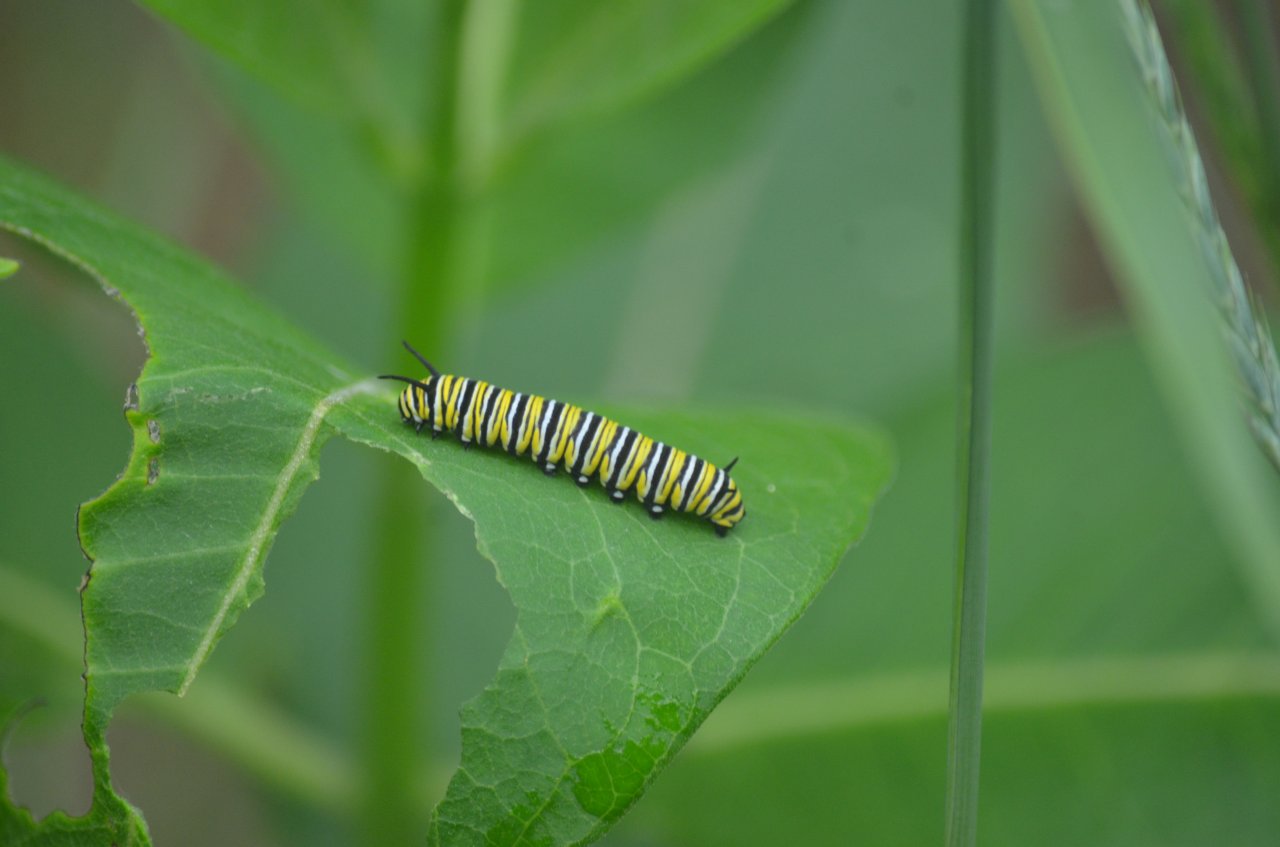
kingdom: Animalia
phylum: Arthropoda
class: Insecta
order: Lepidoptera
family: Nymphalidae
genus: Danaus
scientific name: Danaus plexippus
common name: Monarch
